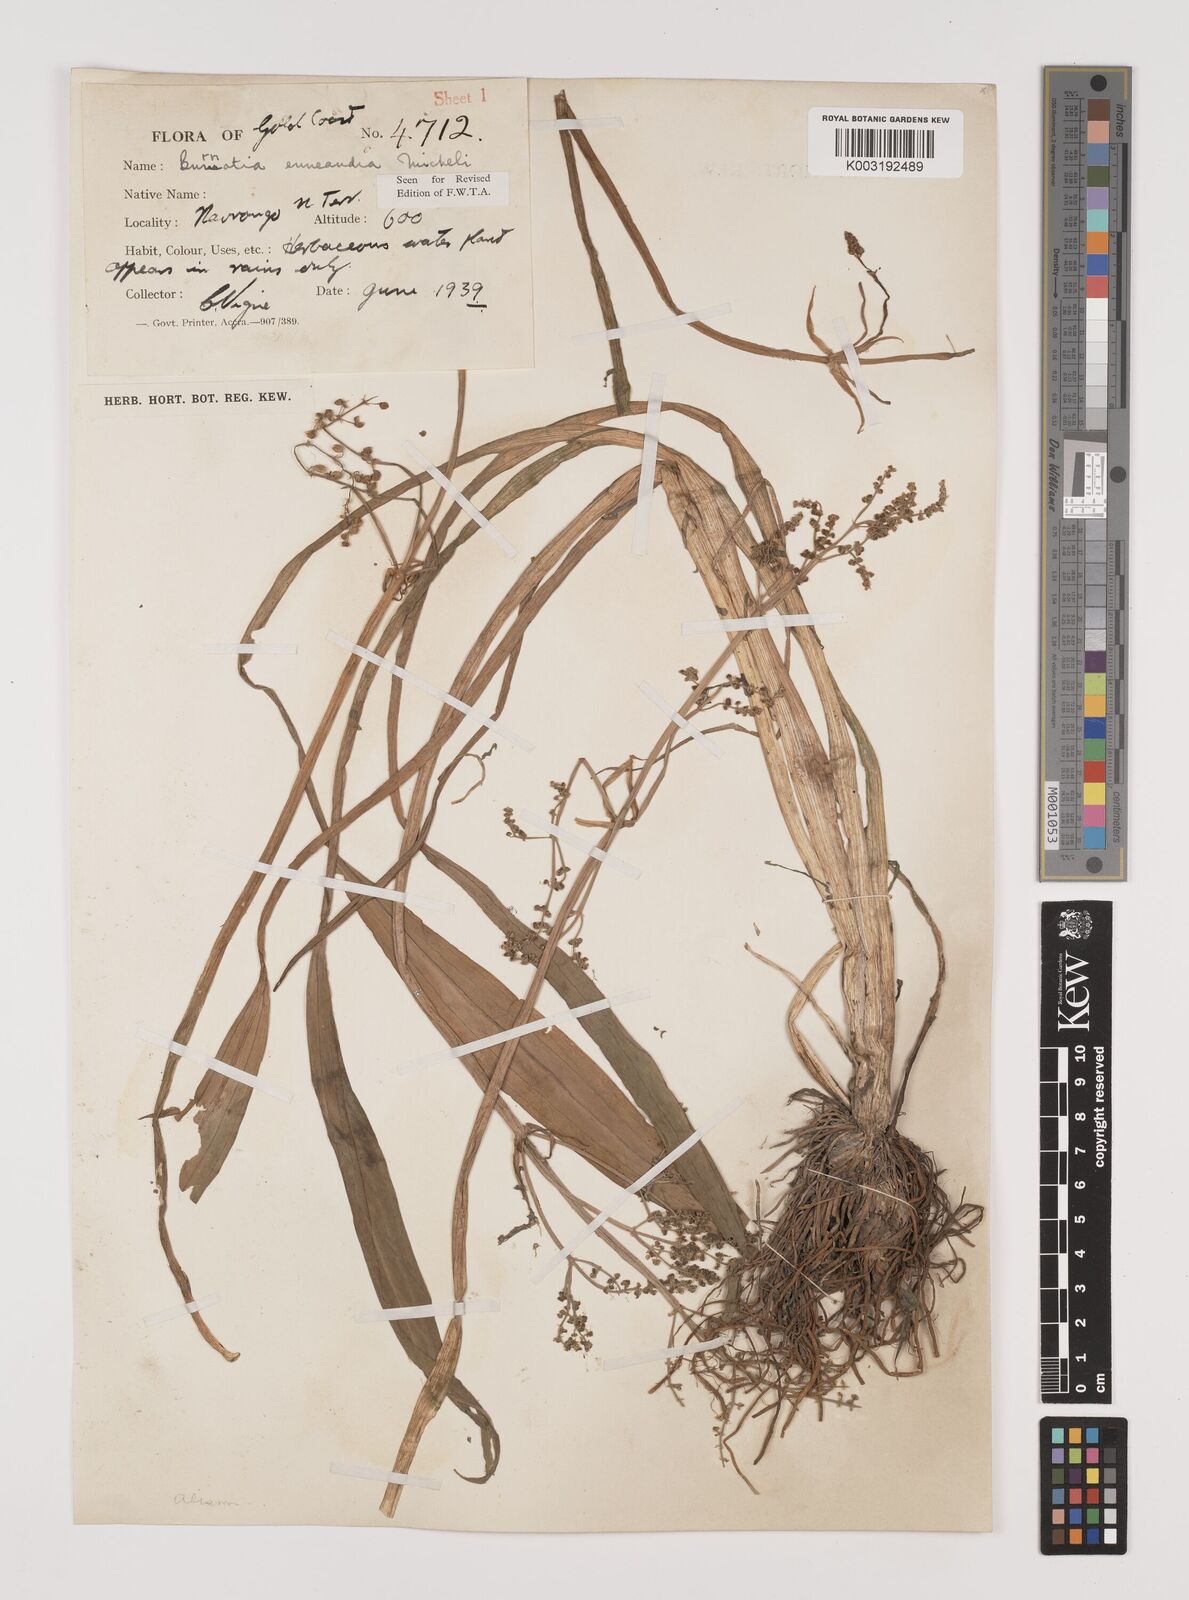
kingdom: Plantae
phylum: Tracheophyta
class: Liliopsida
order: Alismatales
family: Alismataceae
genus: Burnatia
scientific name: Burnatia enneandra
